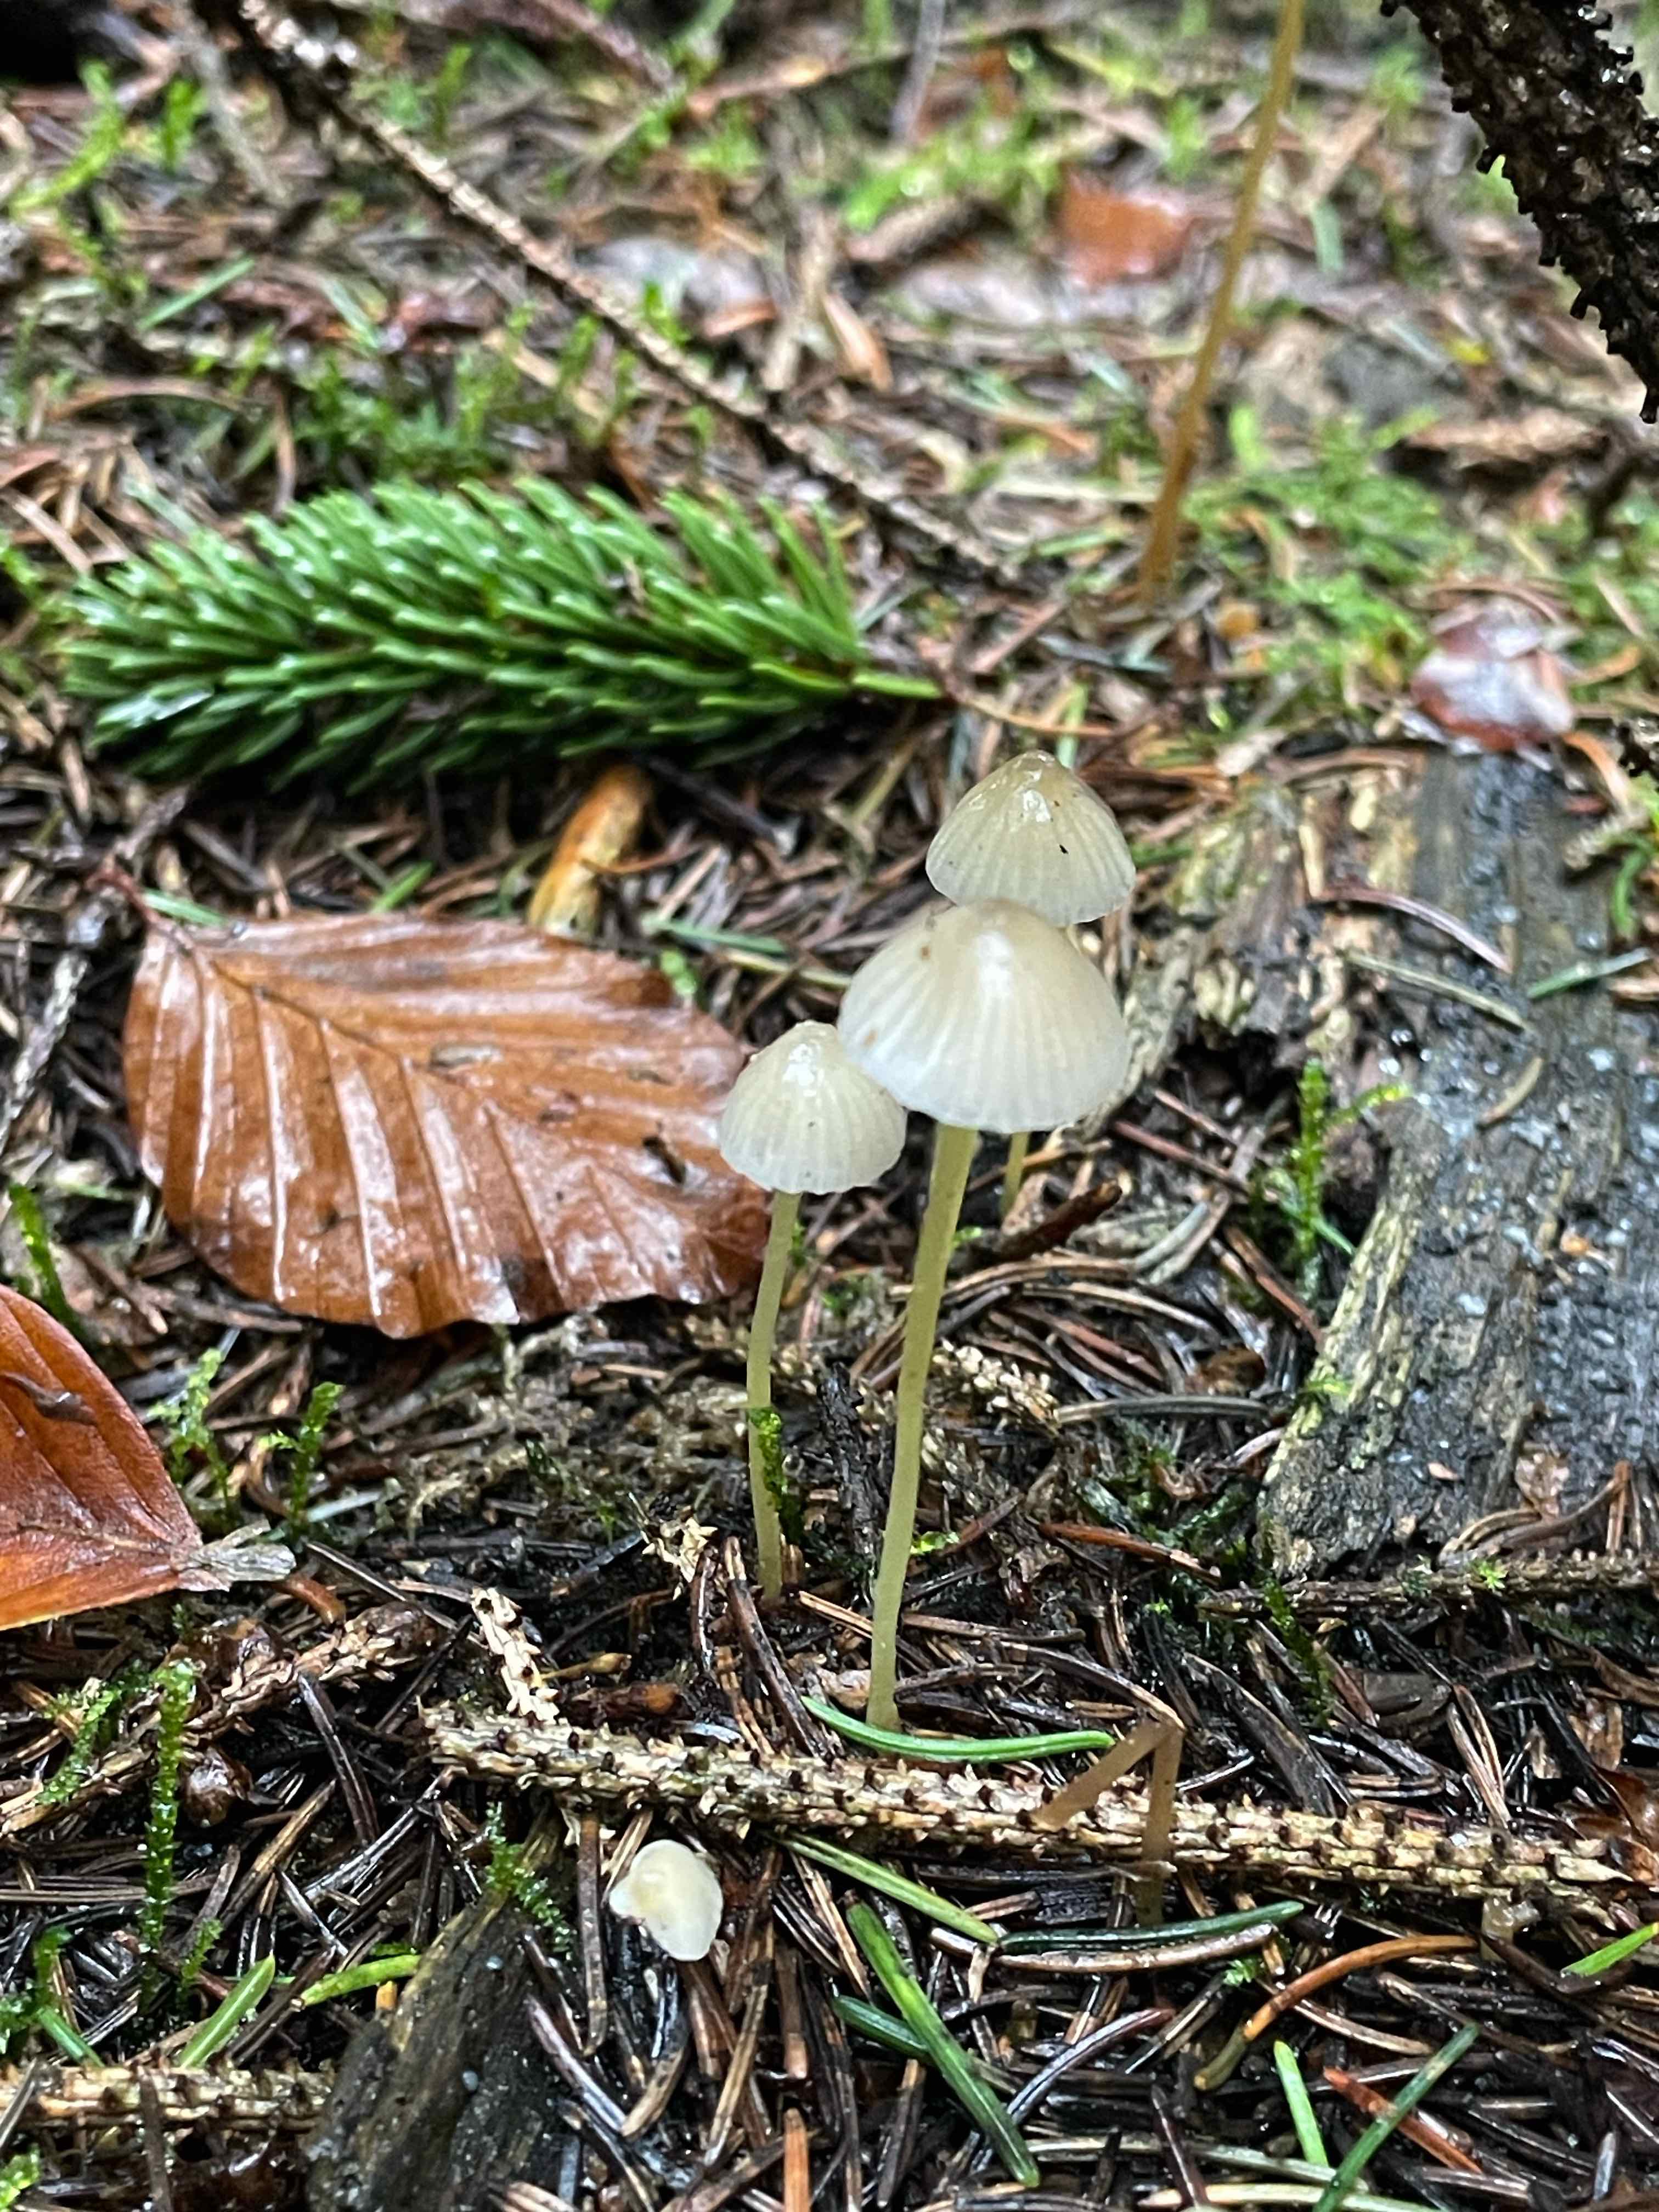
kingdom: Fungi
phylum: Basidiomycota
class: Agaricomycetes
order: Agaricales
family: Mycenaceae
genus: Mycena
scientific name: Mycena epipterygia
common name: gulstokket huesvamp
